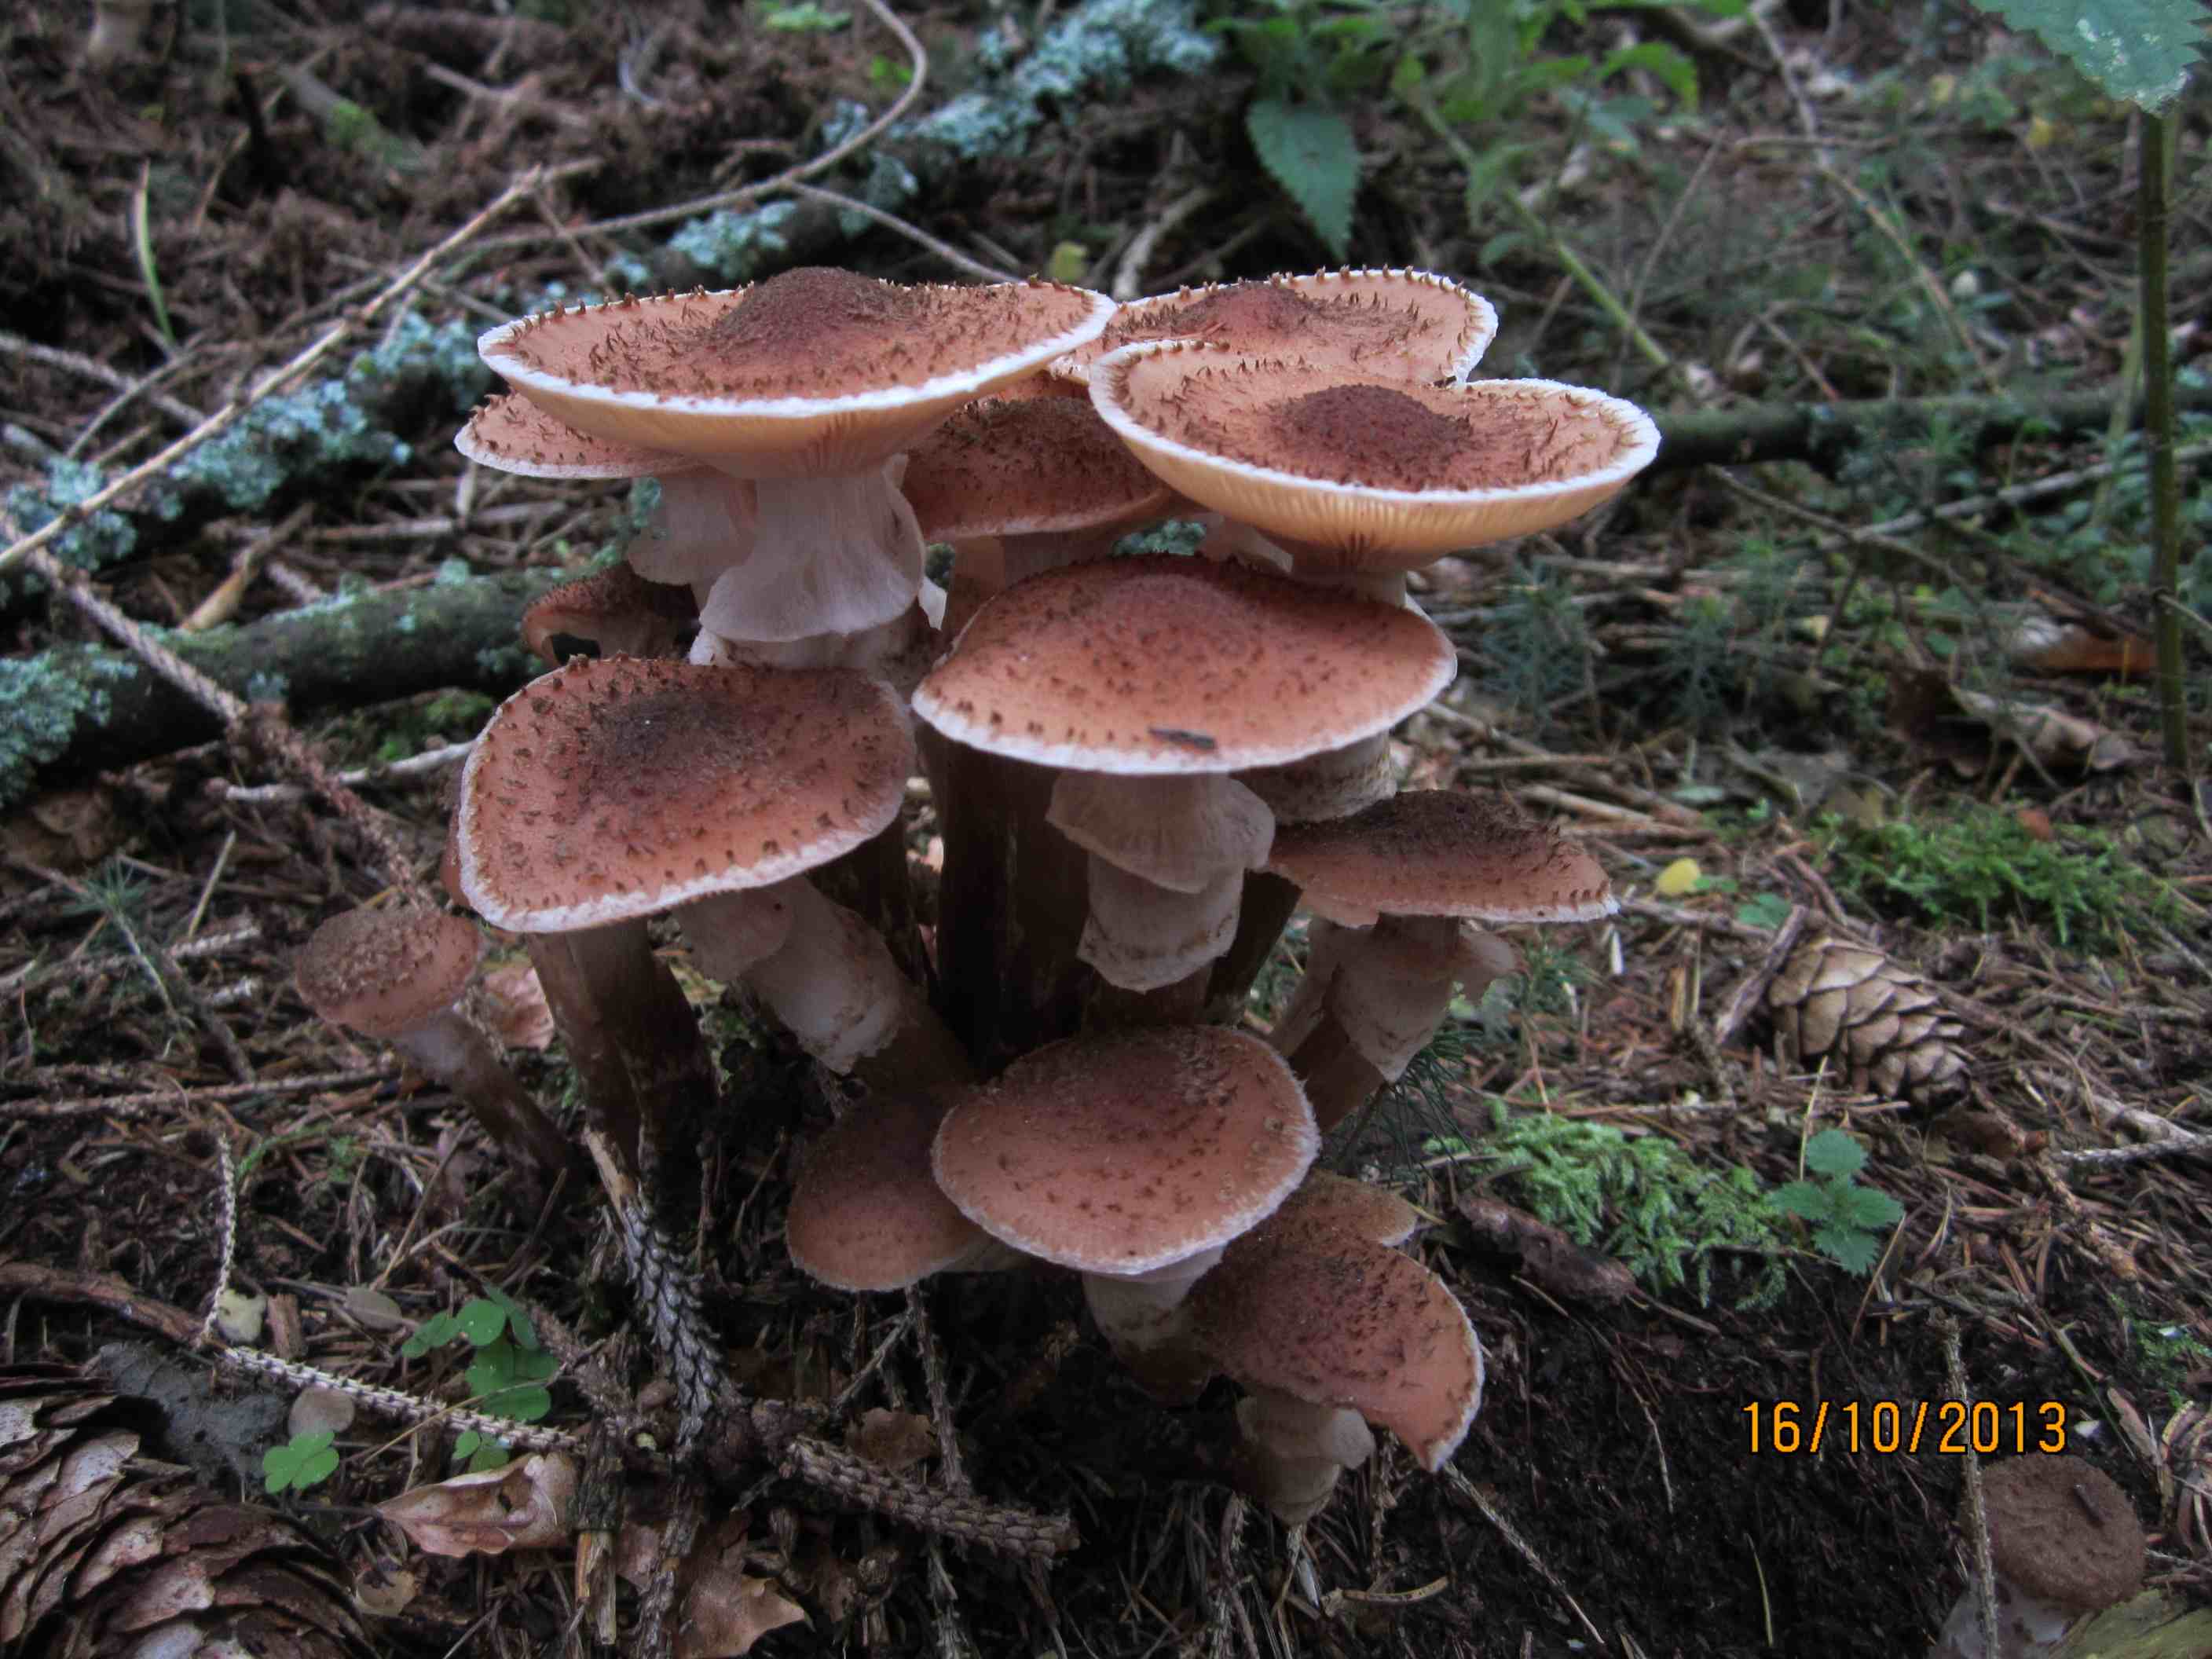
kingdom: Fungi
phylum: Basidiomycota
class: Agaricomycetes
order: Agaricales
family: Physalacriaceae
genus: Armillaria
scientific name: Armillaria ostoyae
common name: mørk honningsvamp
